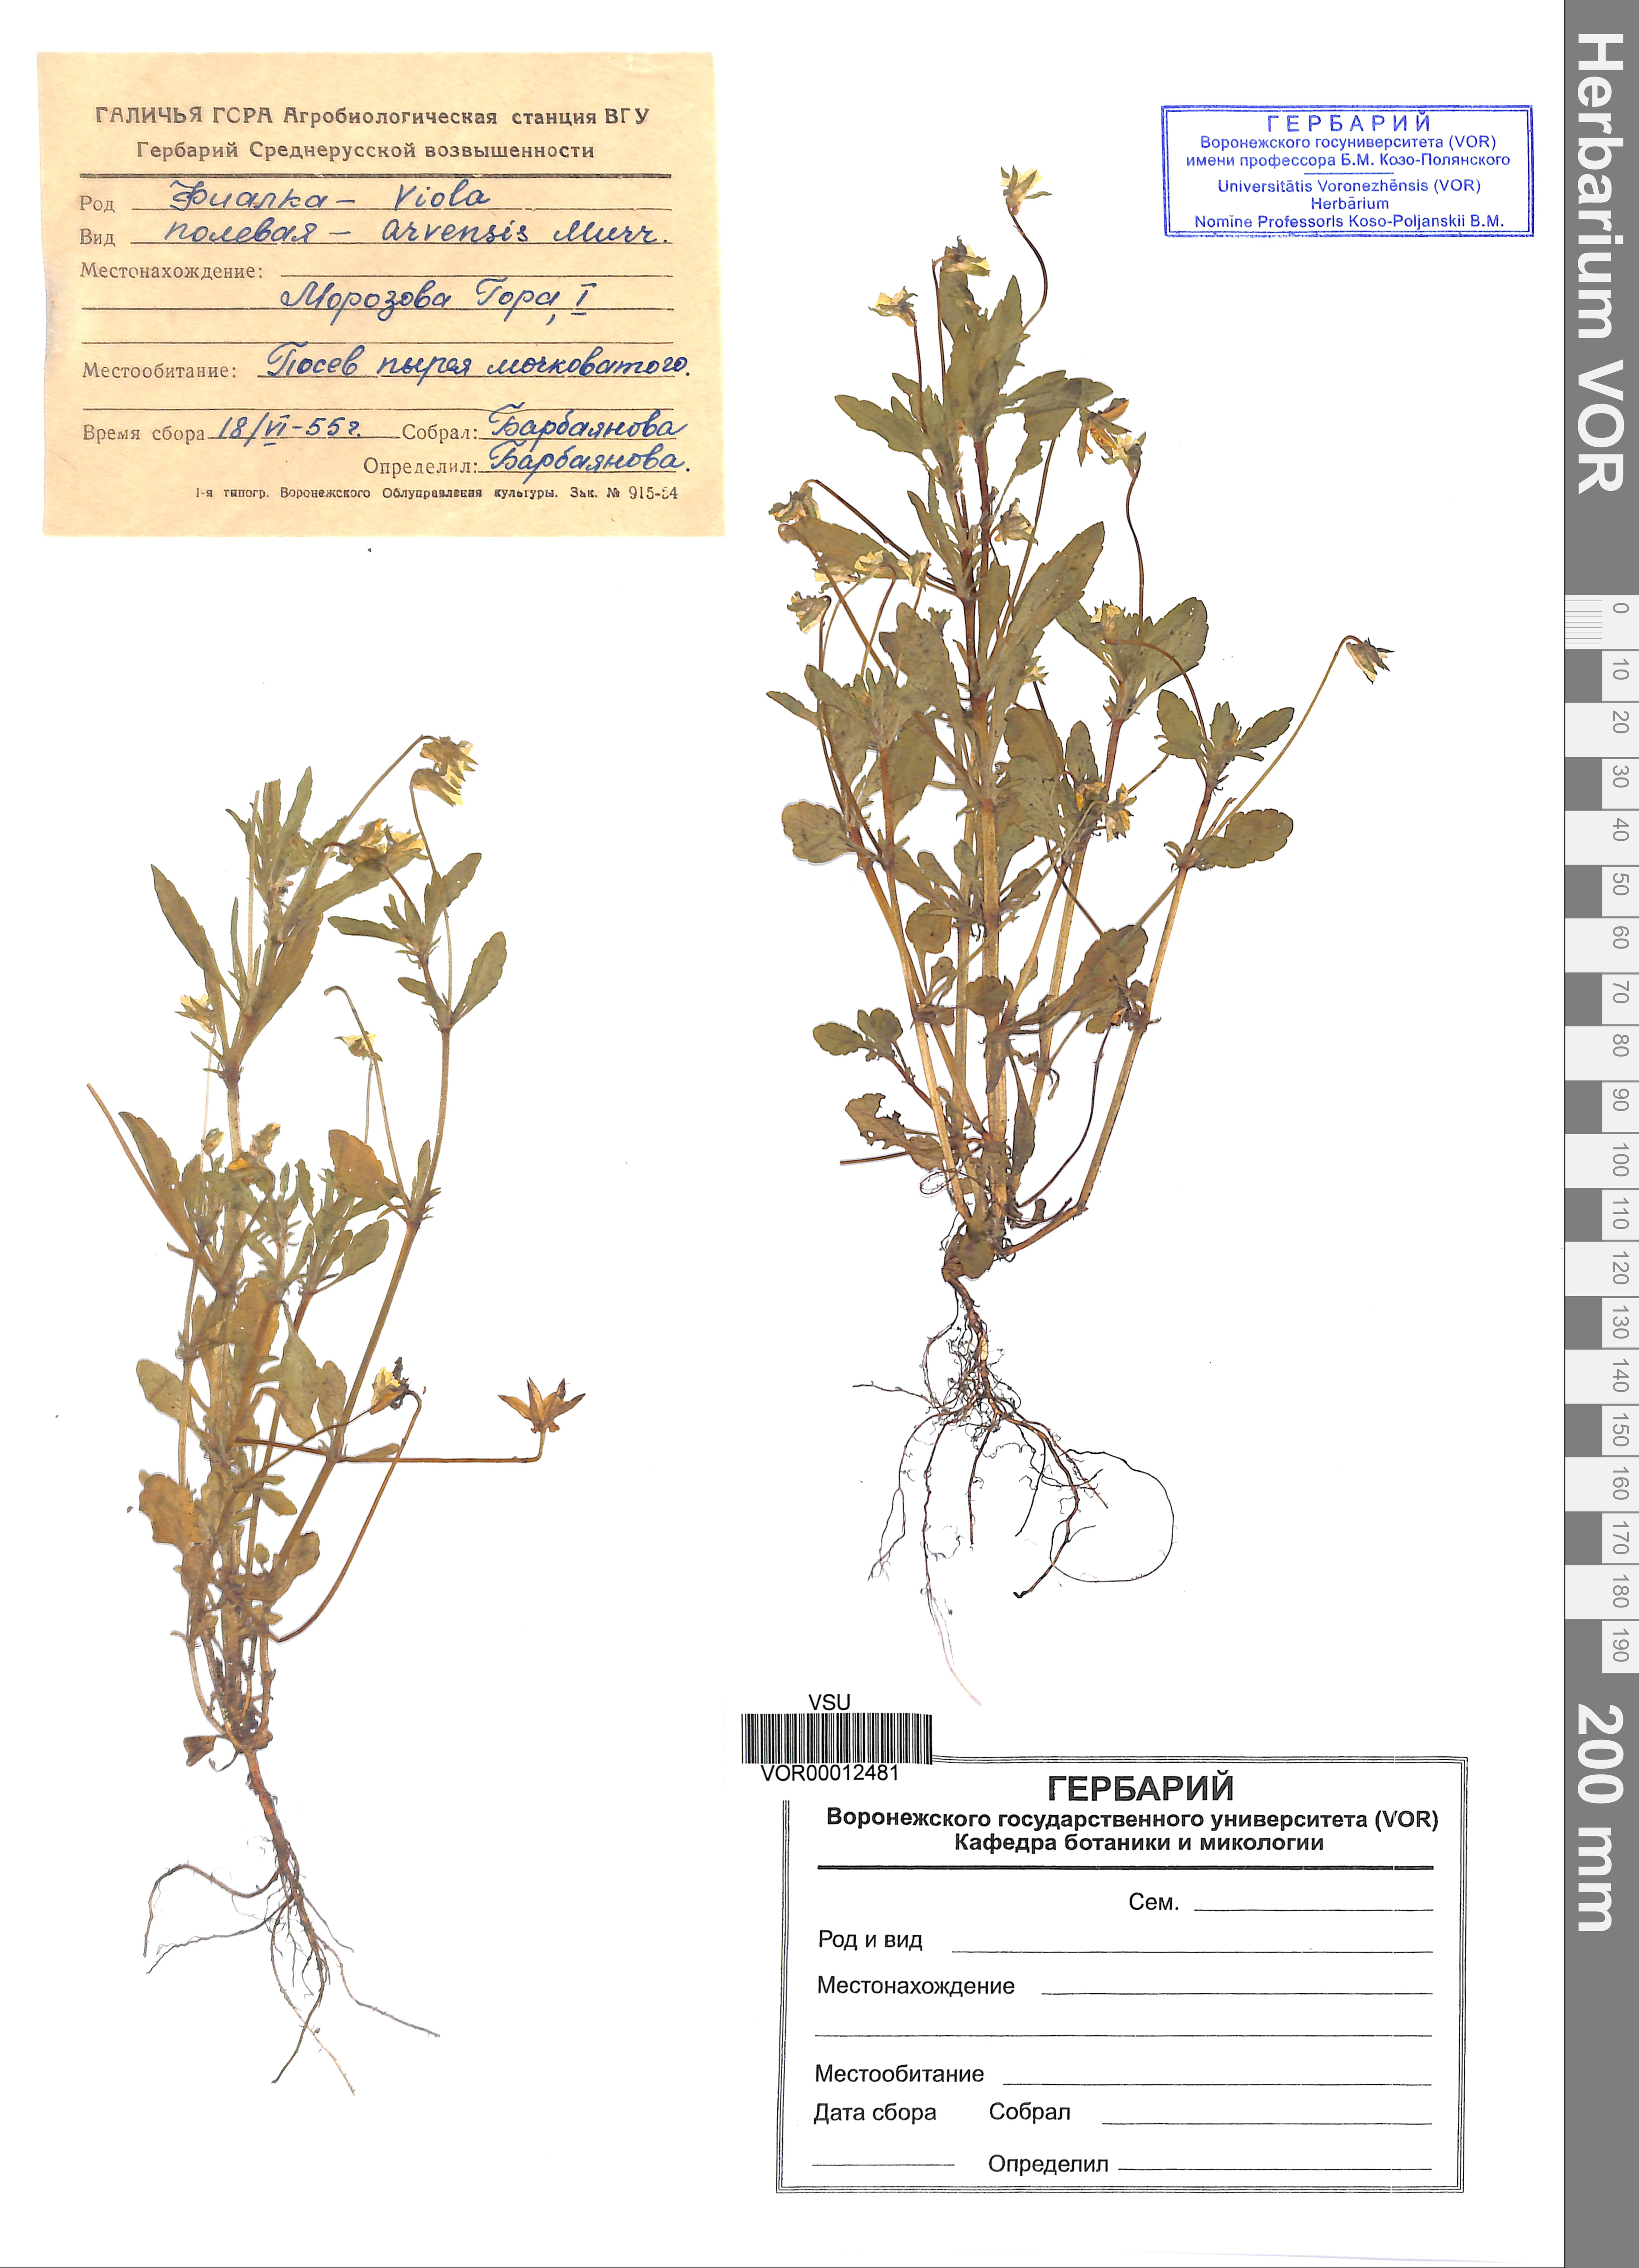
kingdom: Plantae
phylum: Tracheophyta
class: Magnoliopsida
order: Malpighiales
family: Violaceae
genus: Viola
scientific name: Viola arvensis
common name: Field pansy
